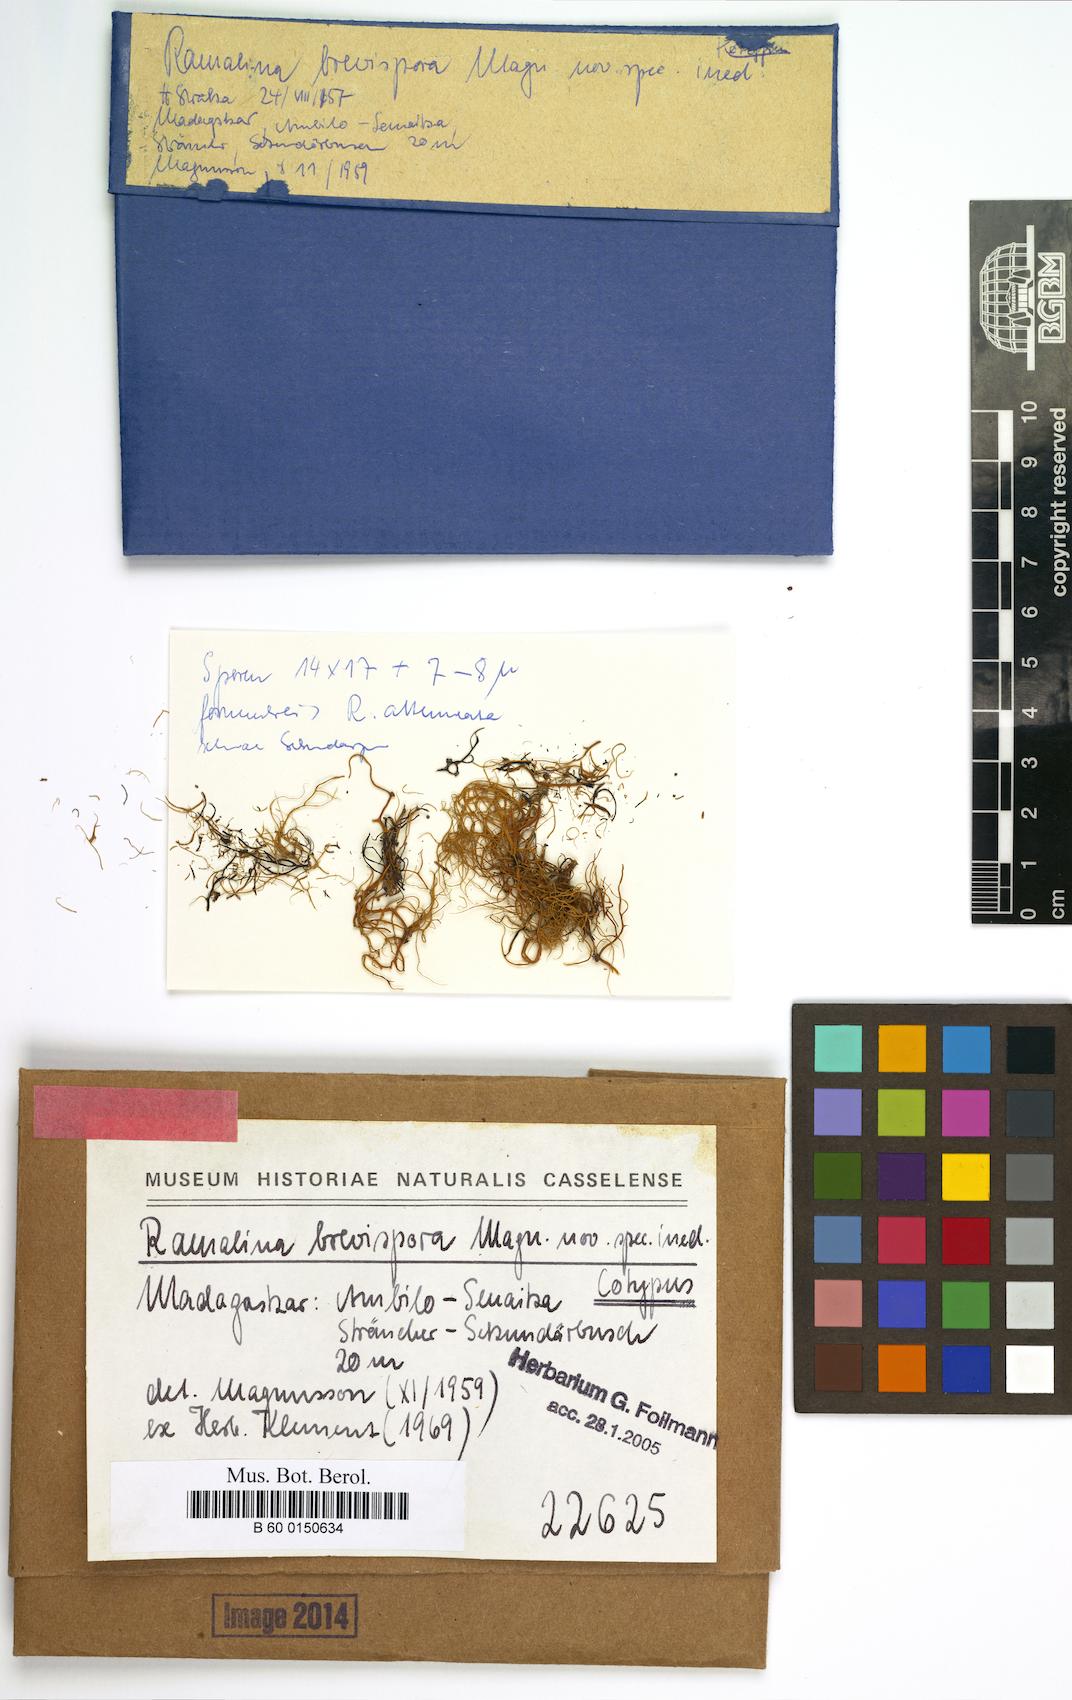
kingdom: Fungi
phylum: Ascomycota
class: Lecanoromycetes
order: Lecanorales
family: Ramalinaceae
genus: Ramalina
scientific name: Ramalina
